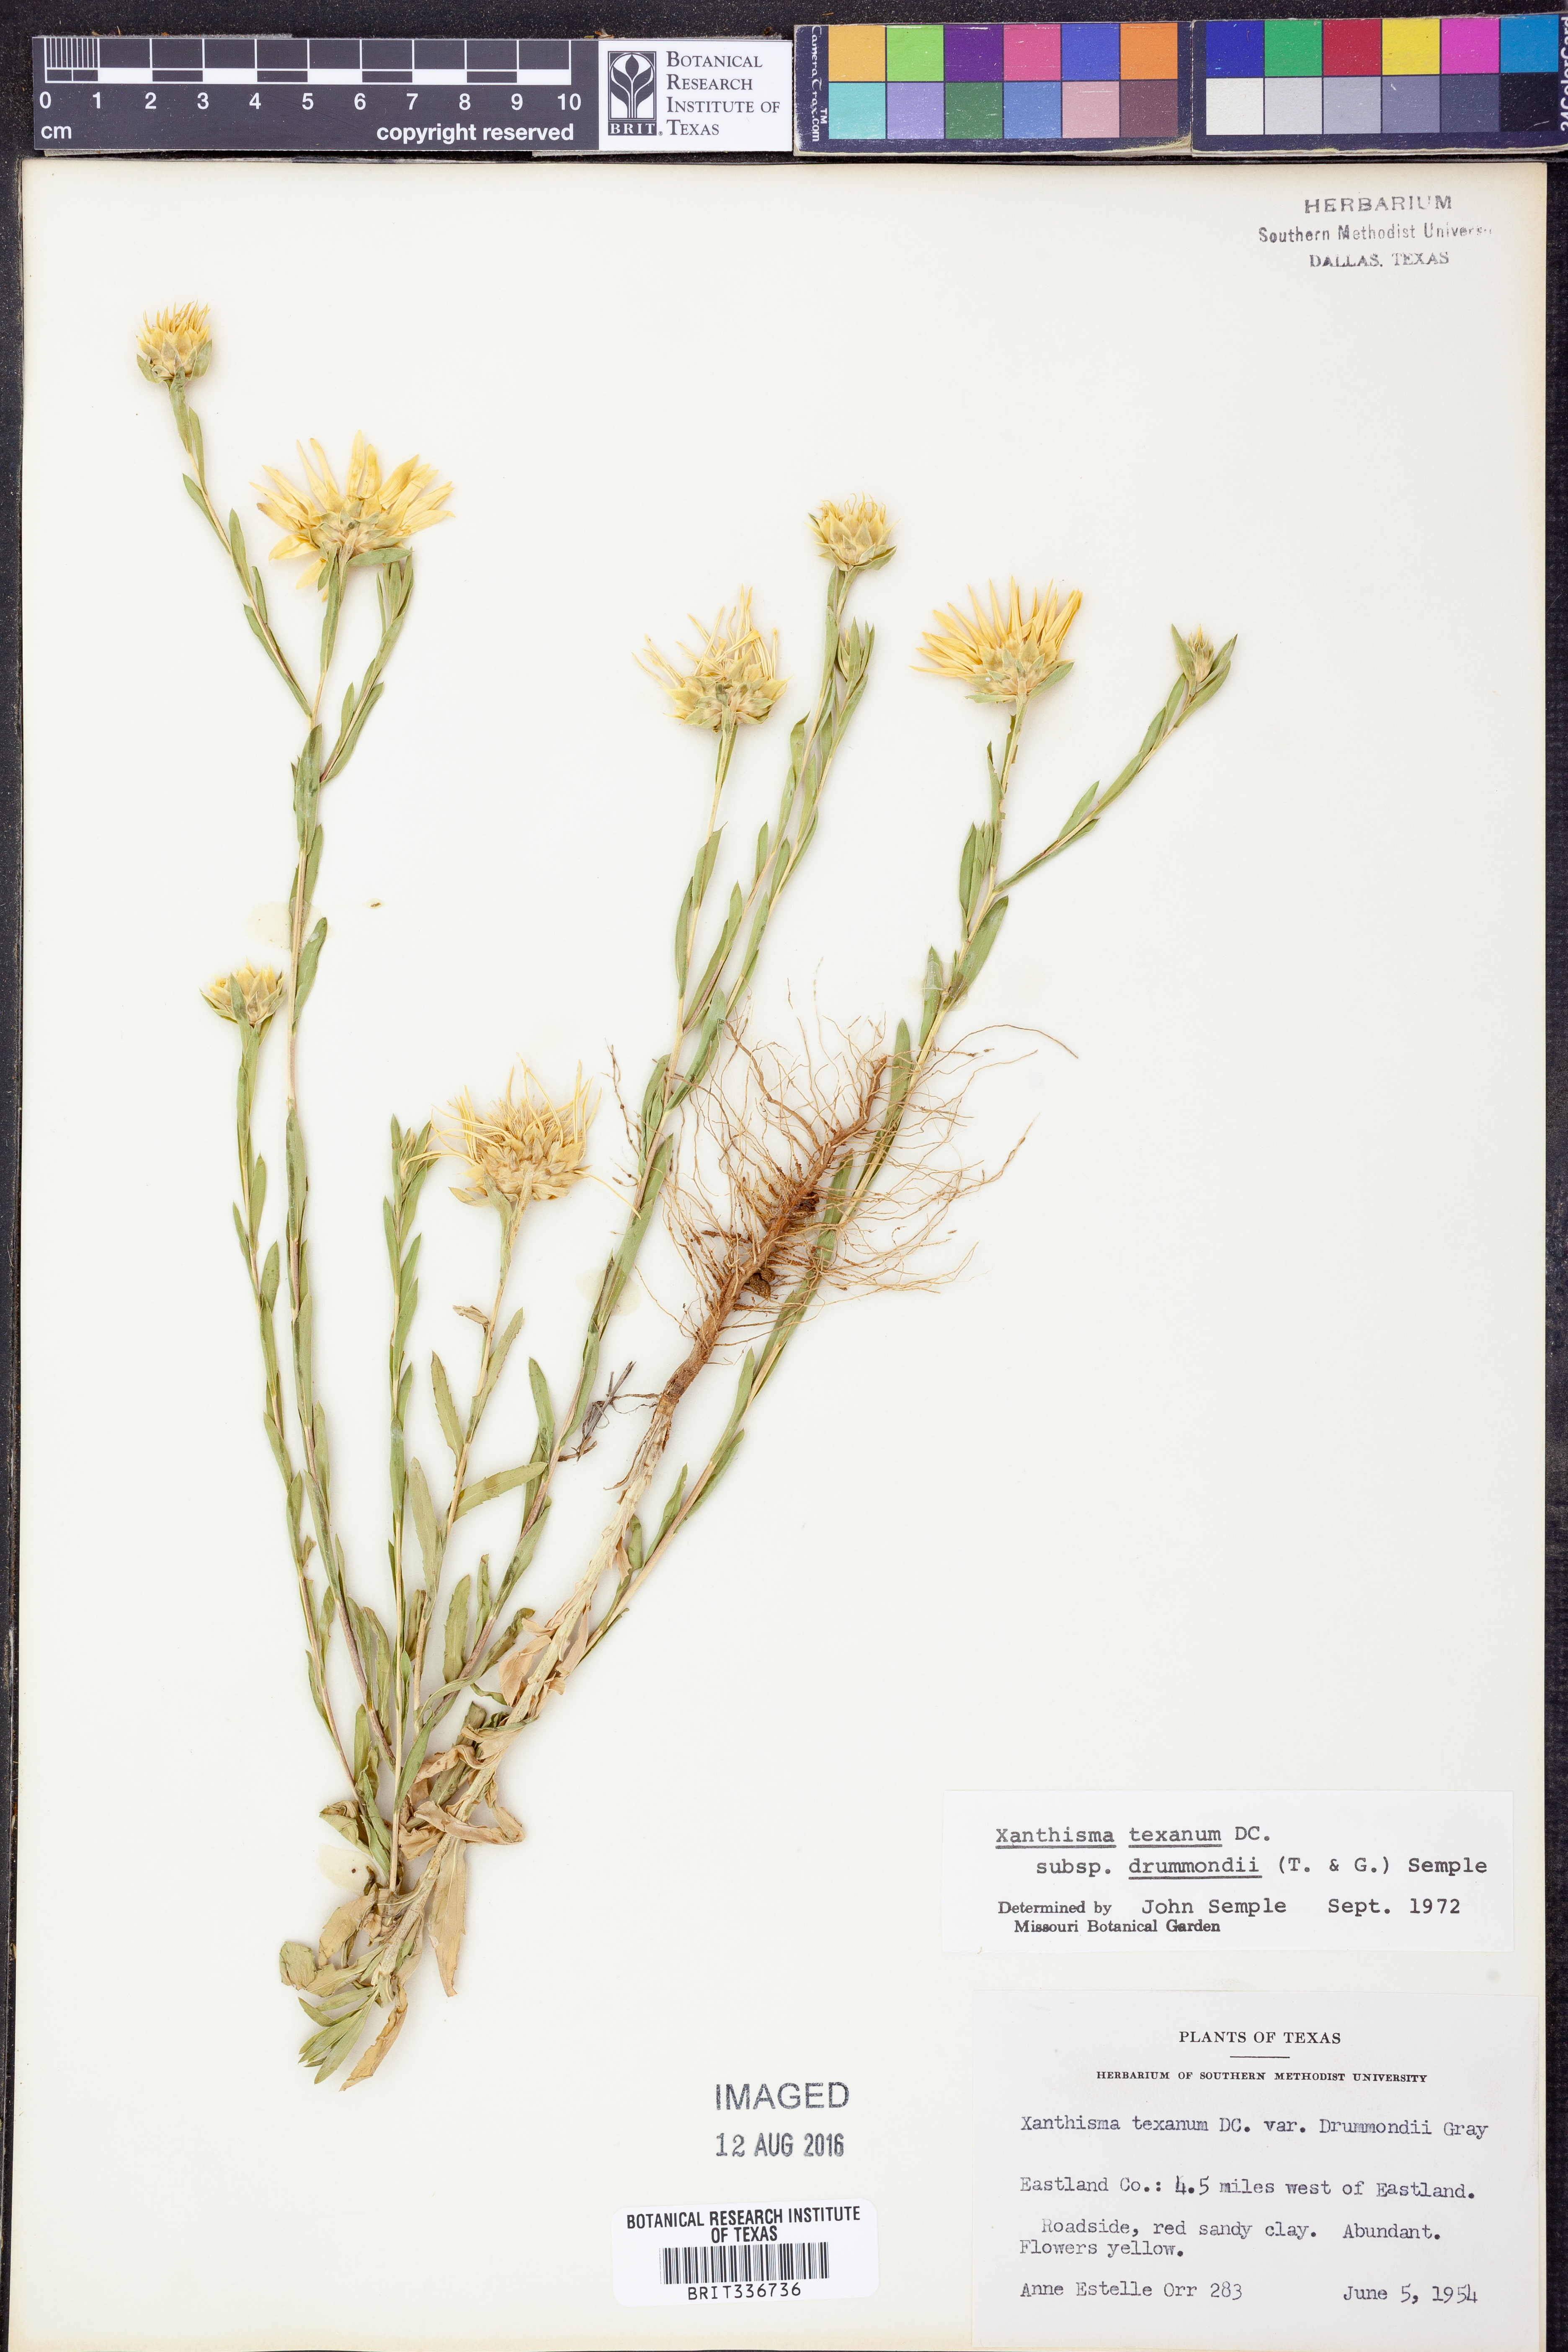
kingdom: Plantae
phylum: Tracheophyta
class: Magnoliopsida
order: Asterales
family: Asteraceae
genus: Xanthisma
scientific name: Xanthisma texanum
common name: Texas sleepy daisy
